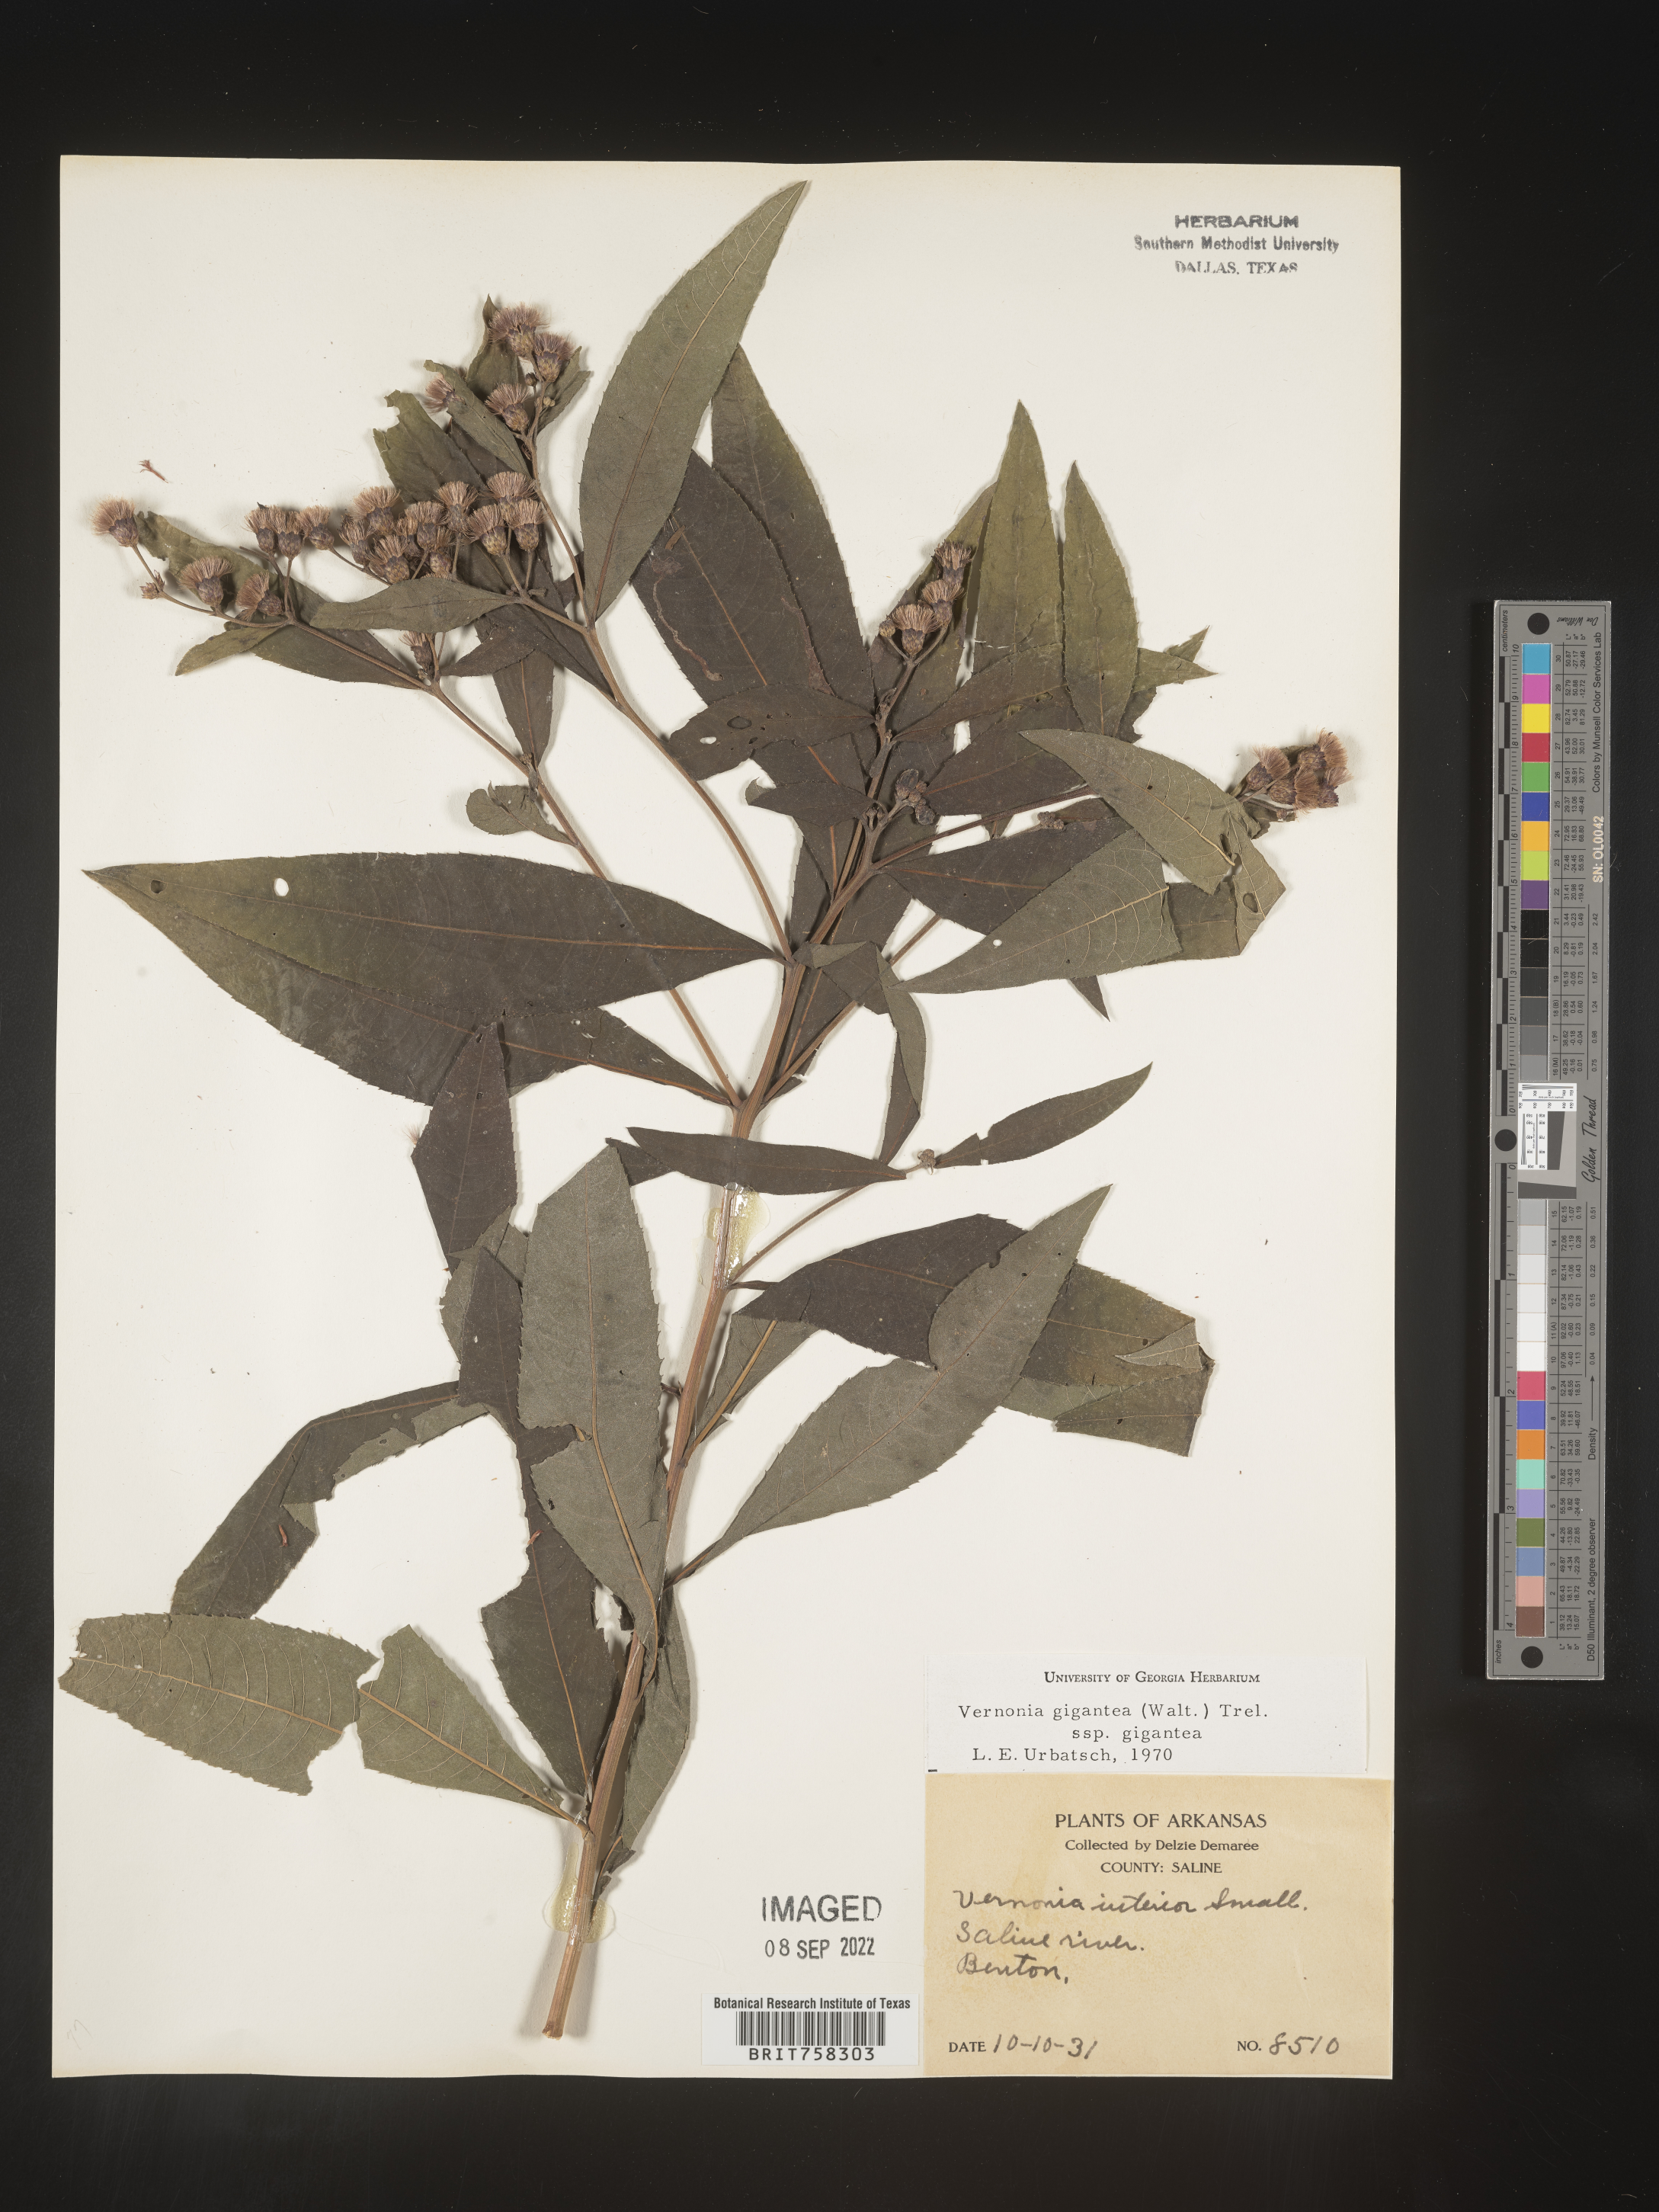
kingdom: Plantae
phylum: Tracheophyta
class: Magnoliopsida
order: Asterales
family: Asteraceae
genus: Vernonia
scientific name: Vernonia gigantea
